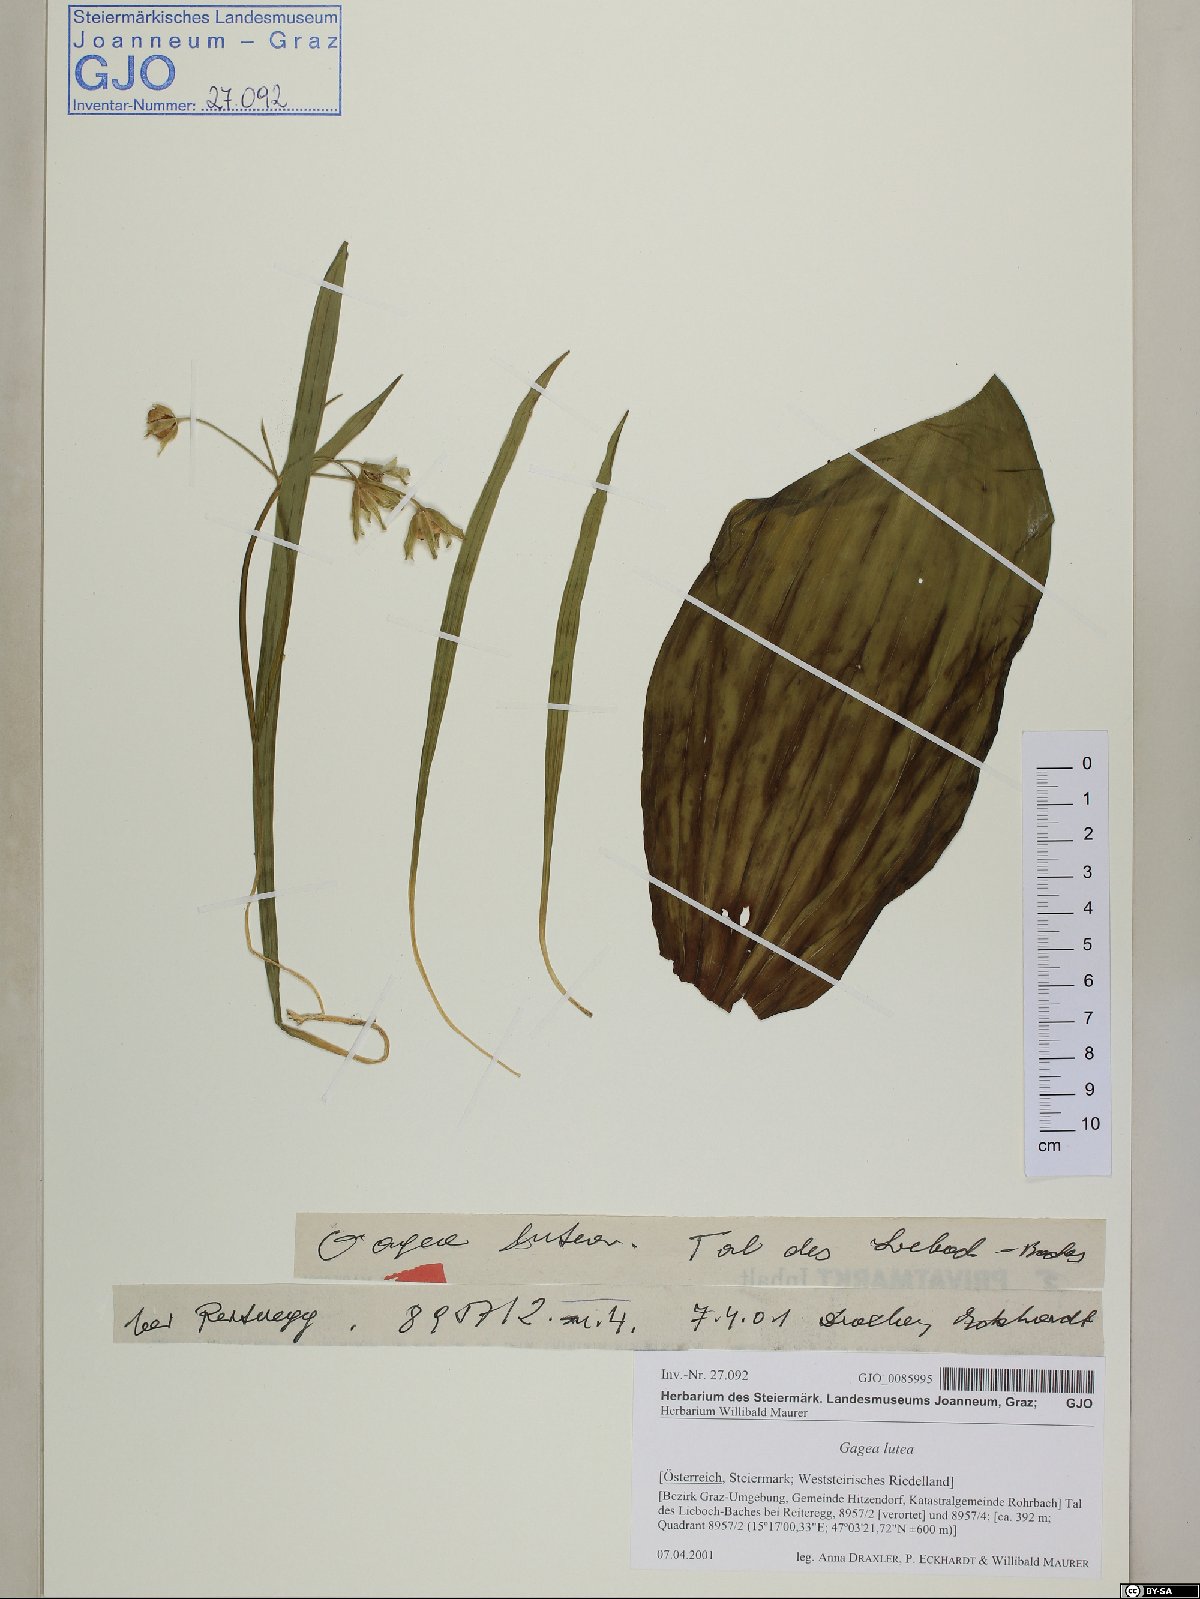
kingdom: Plantae
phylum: Tracheophyta
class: Liliopsida
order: Liliales
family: Liliaceae
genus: Gagea
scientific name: Gagea lutea
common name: Yellow star-of-bethlehem
